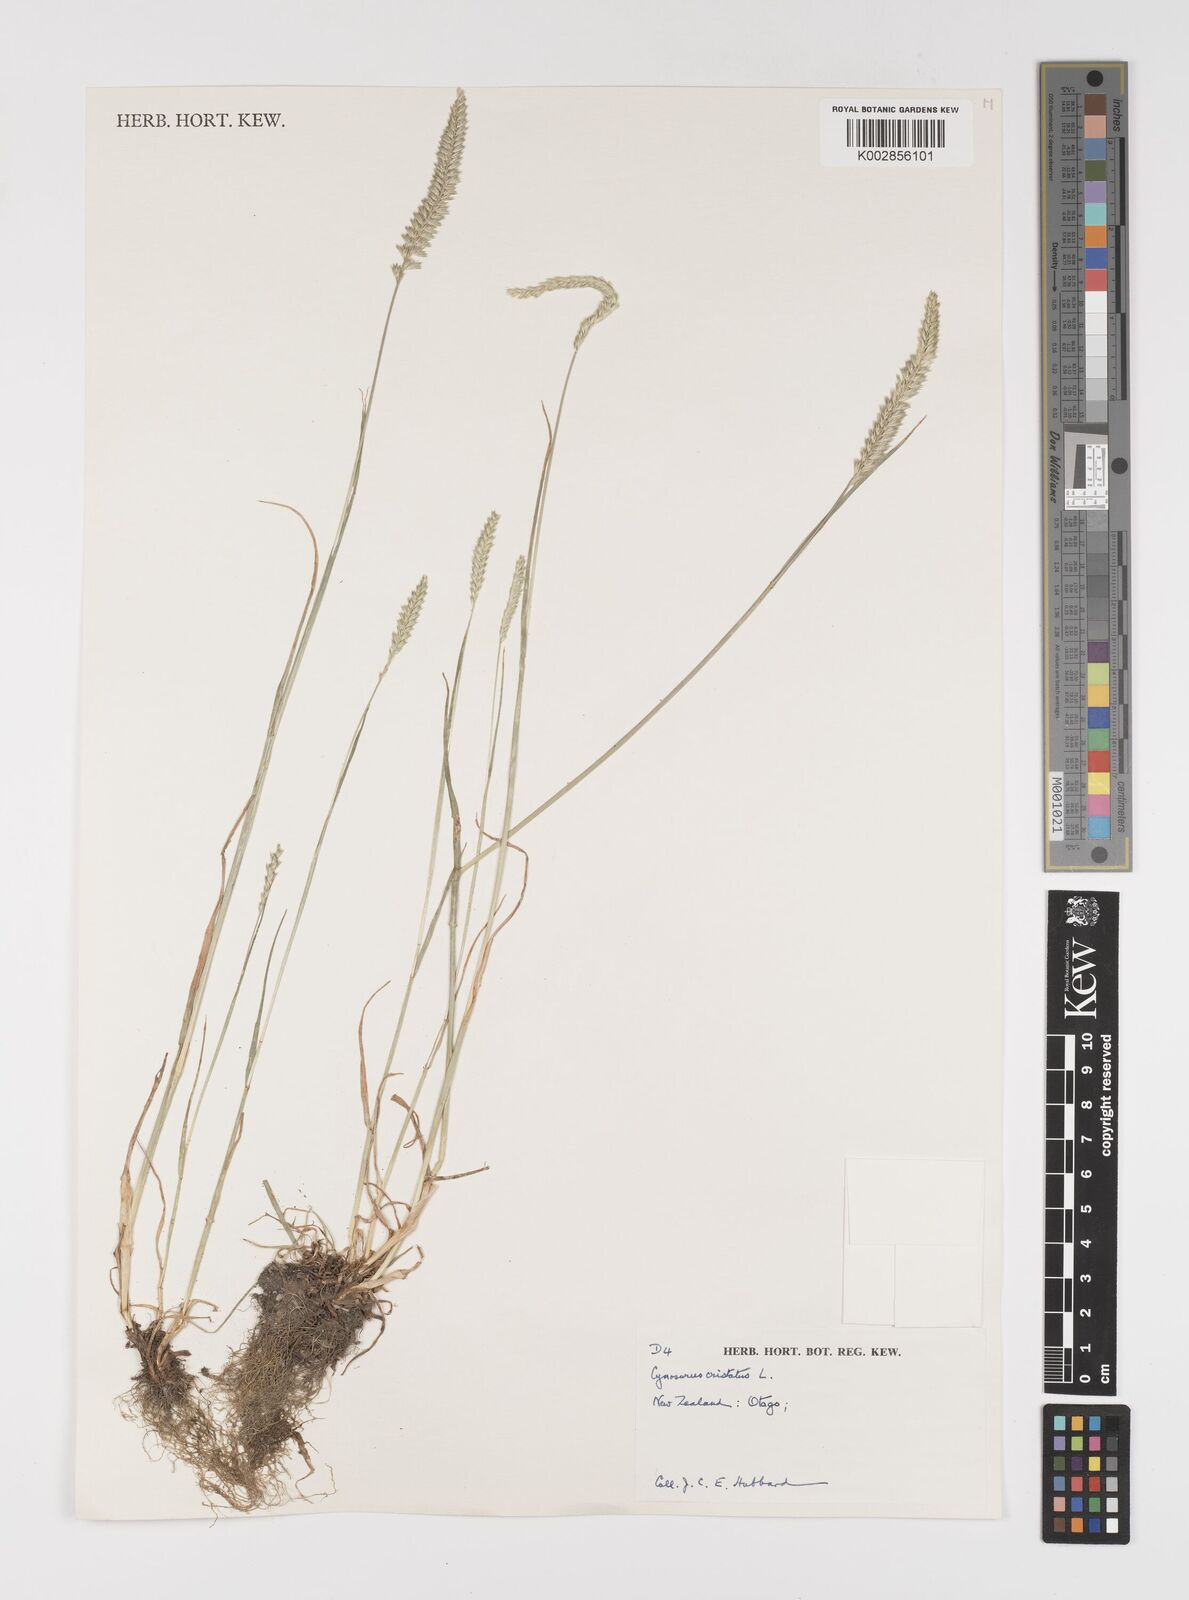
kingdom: Plantae
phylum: Tracheophyta
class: Liliopsida
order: Poales
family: Poaceae
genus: Cynosurus
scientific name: Cynosurus cristatus
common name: Crested dog's-tail
